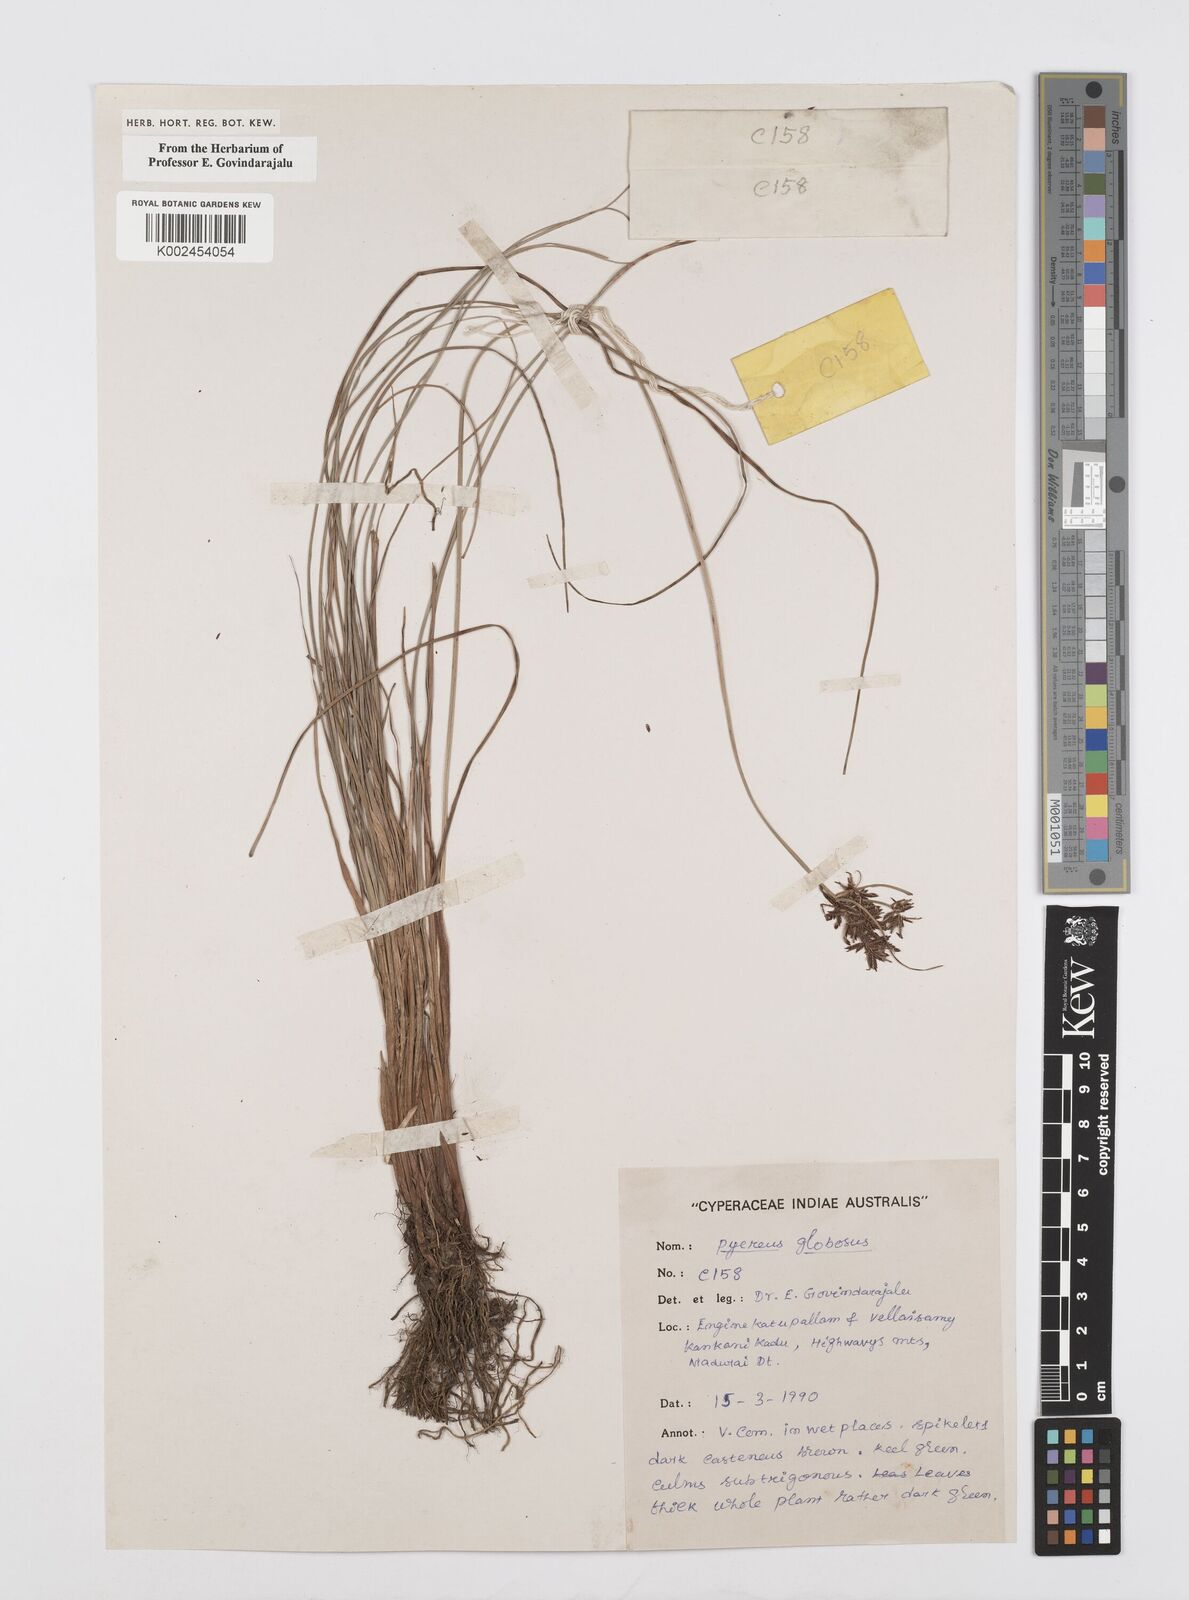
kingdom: Plantae
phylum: Tracheophyta
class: Liliopsida
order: Poales
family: Cyperaceae
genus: Cyperus
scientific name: Cyperus flavidus
